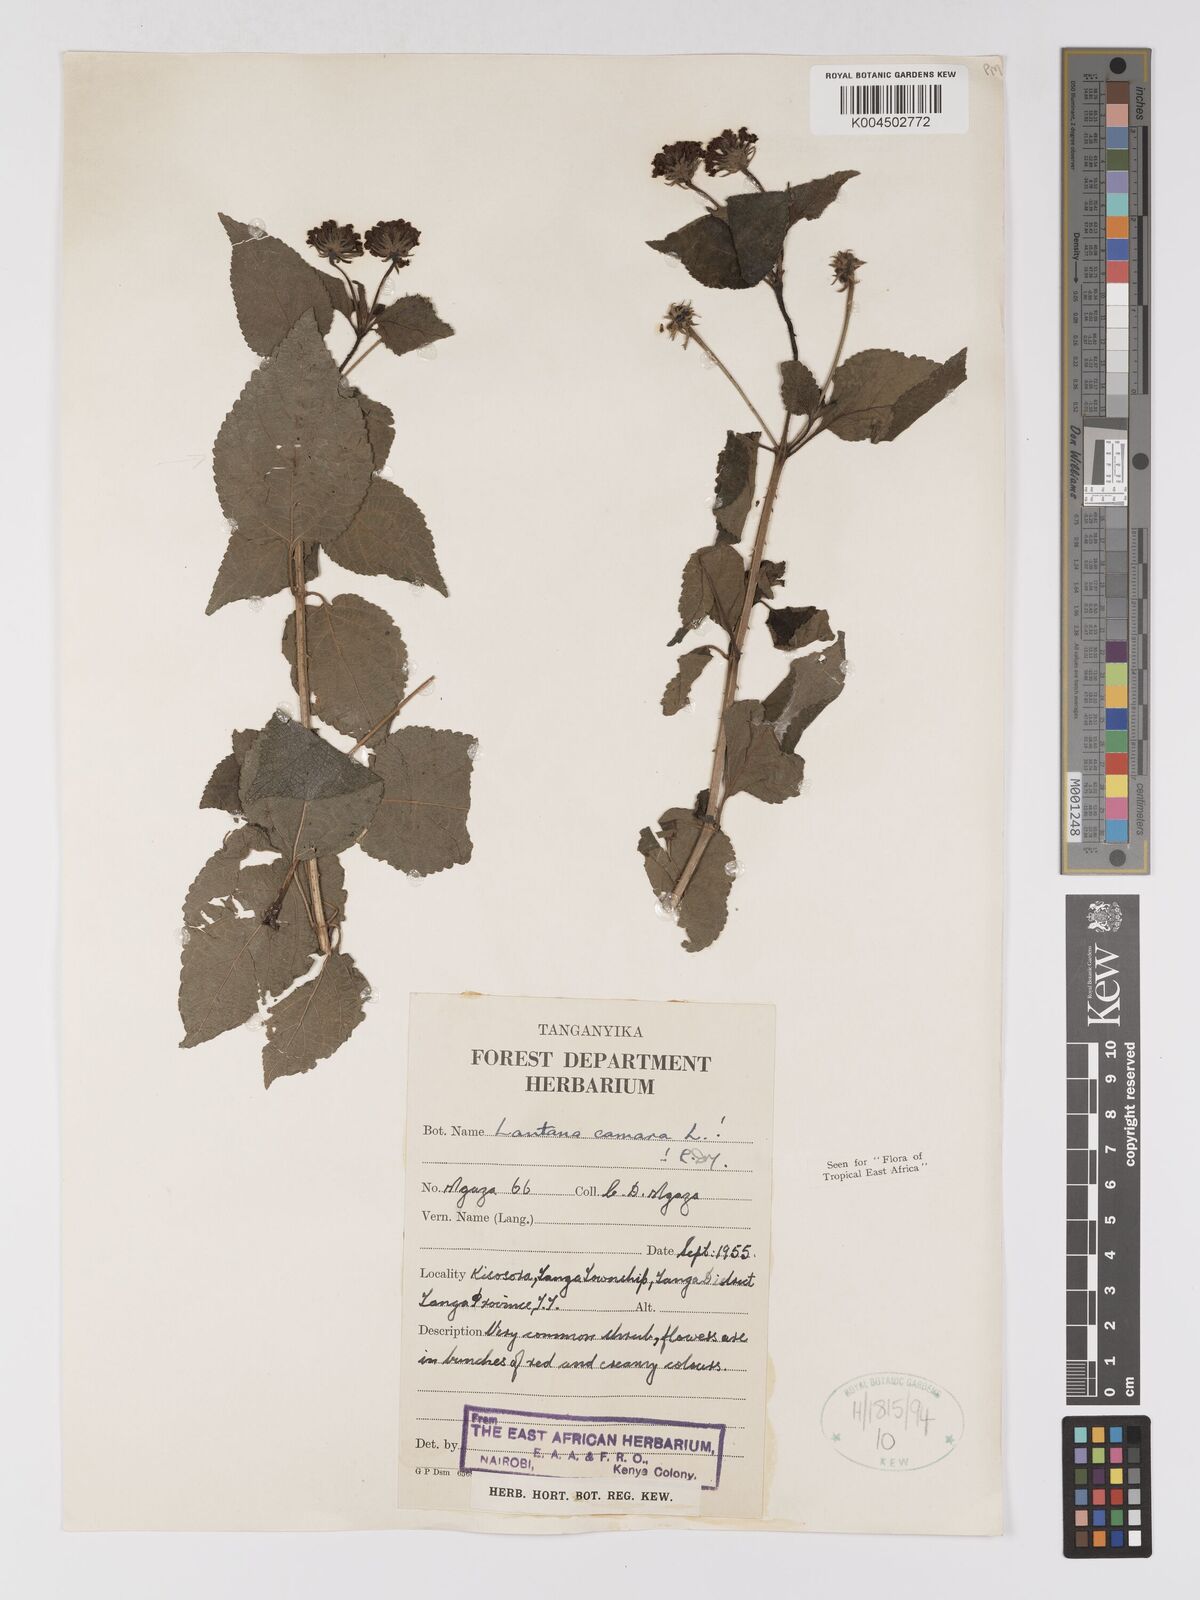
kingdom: Plantae
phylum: Tracheophyta
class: Magnoliopsida
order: Lamiales
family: Verbenaceae
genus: Lantana
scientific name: Lantana camara
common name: Lantana
